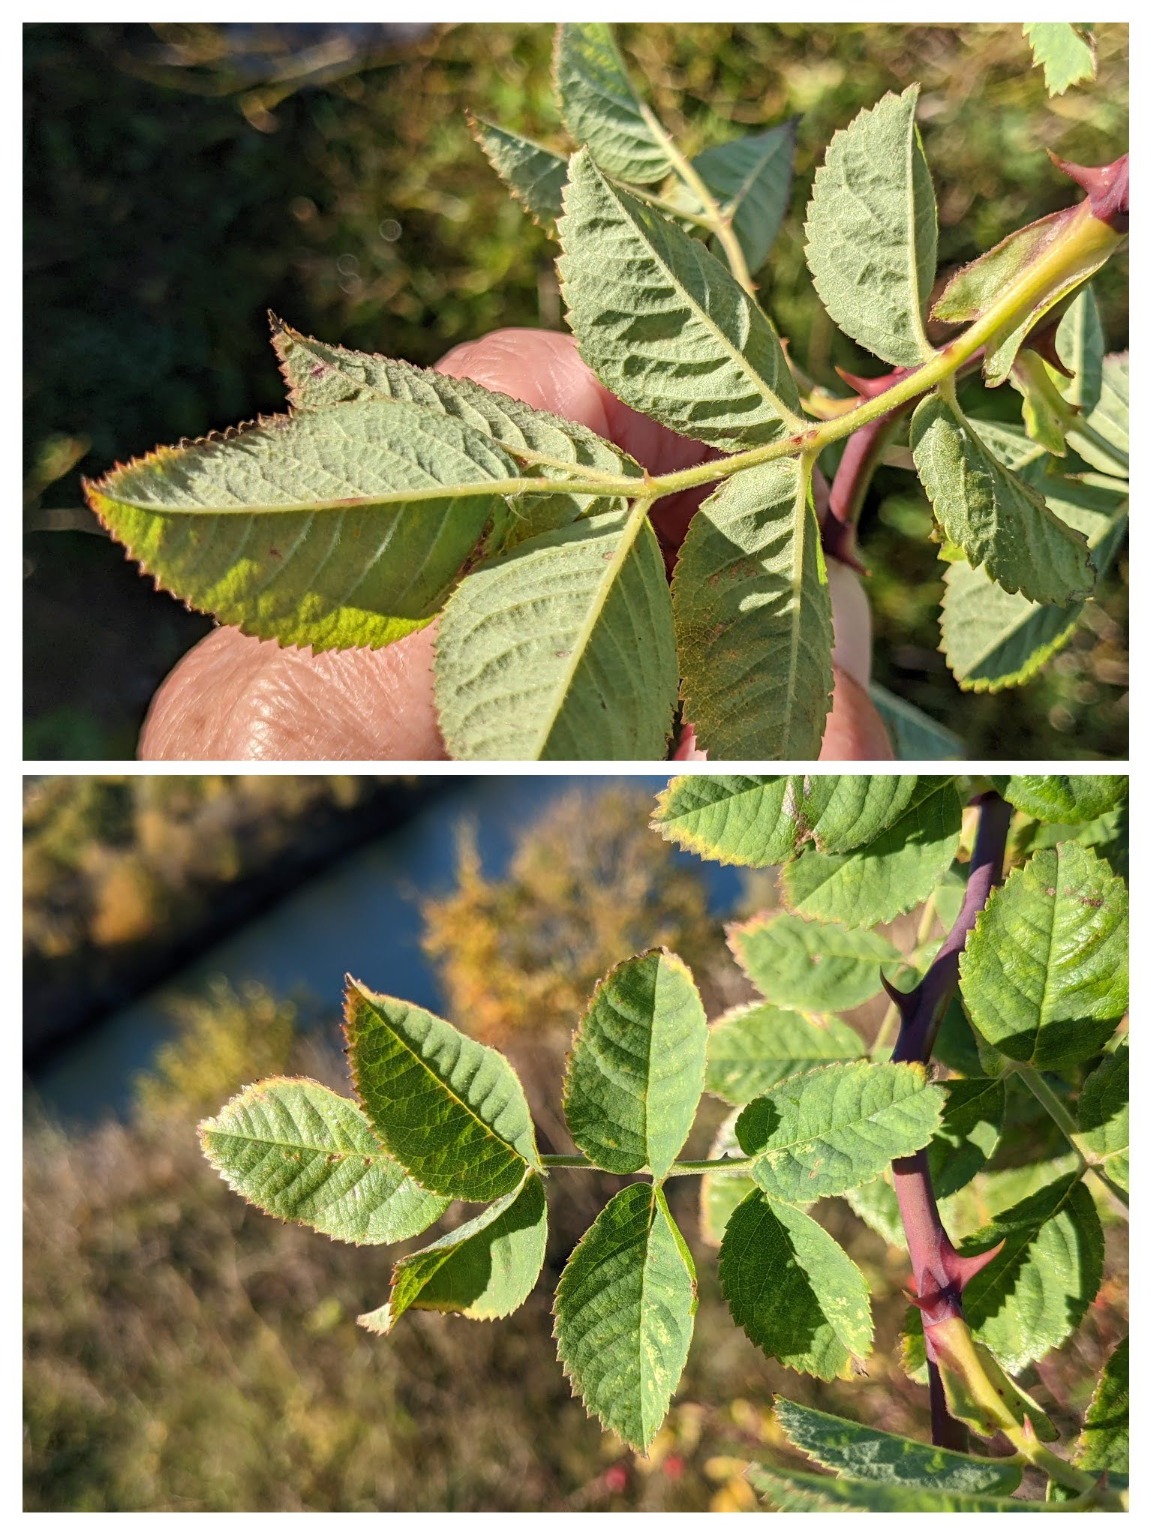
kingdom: Plantae
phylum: Tracheophyta
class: Magnoliopsida
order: Rosales
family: Rosaceae
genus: Rosa
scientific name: Rosa caesia
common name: Håret blågrøn rose
